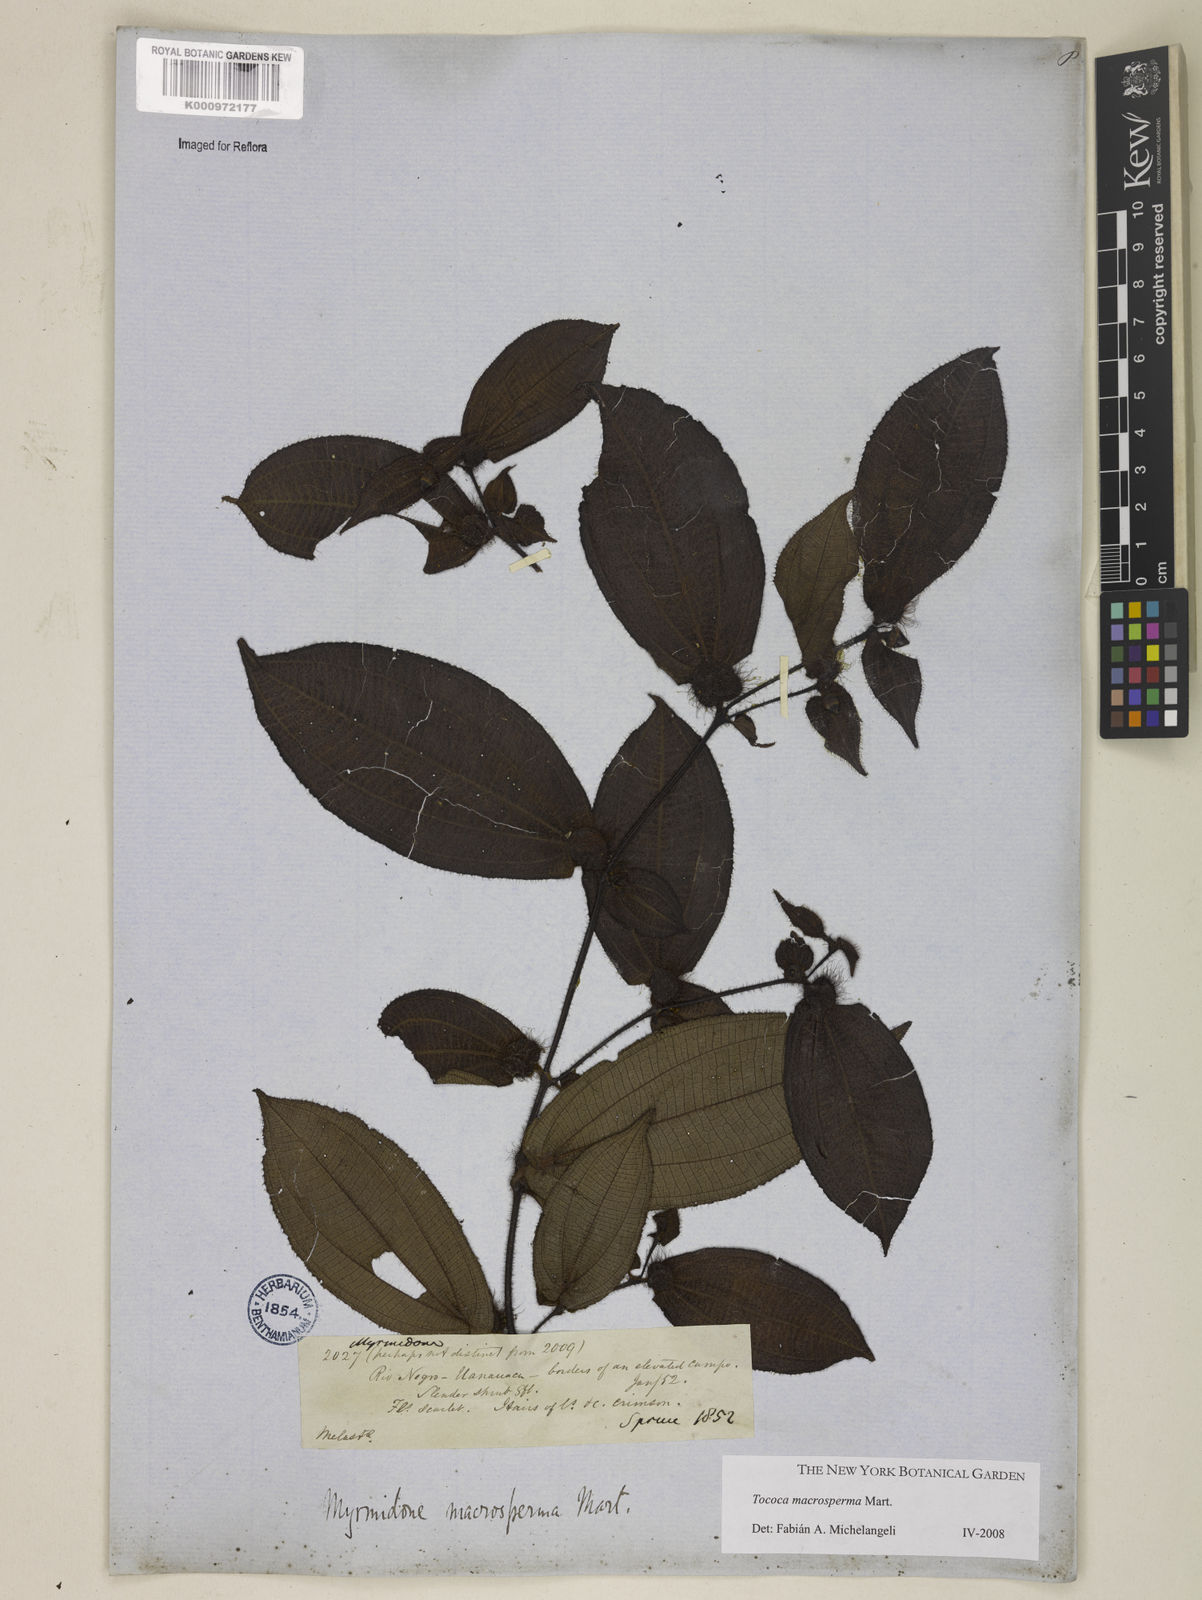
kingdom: Plantae
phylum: Tracheophyta
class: Magnoliopsida
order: Myrtales
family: Melastomataceae
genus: Miconia
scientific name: Miconia macrosperma
